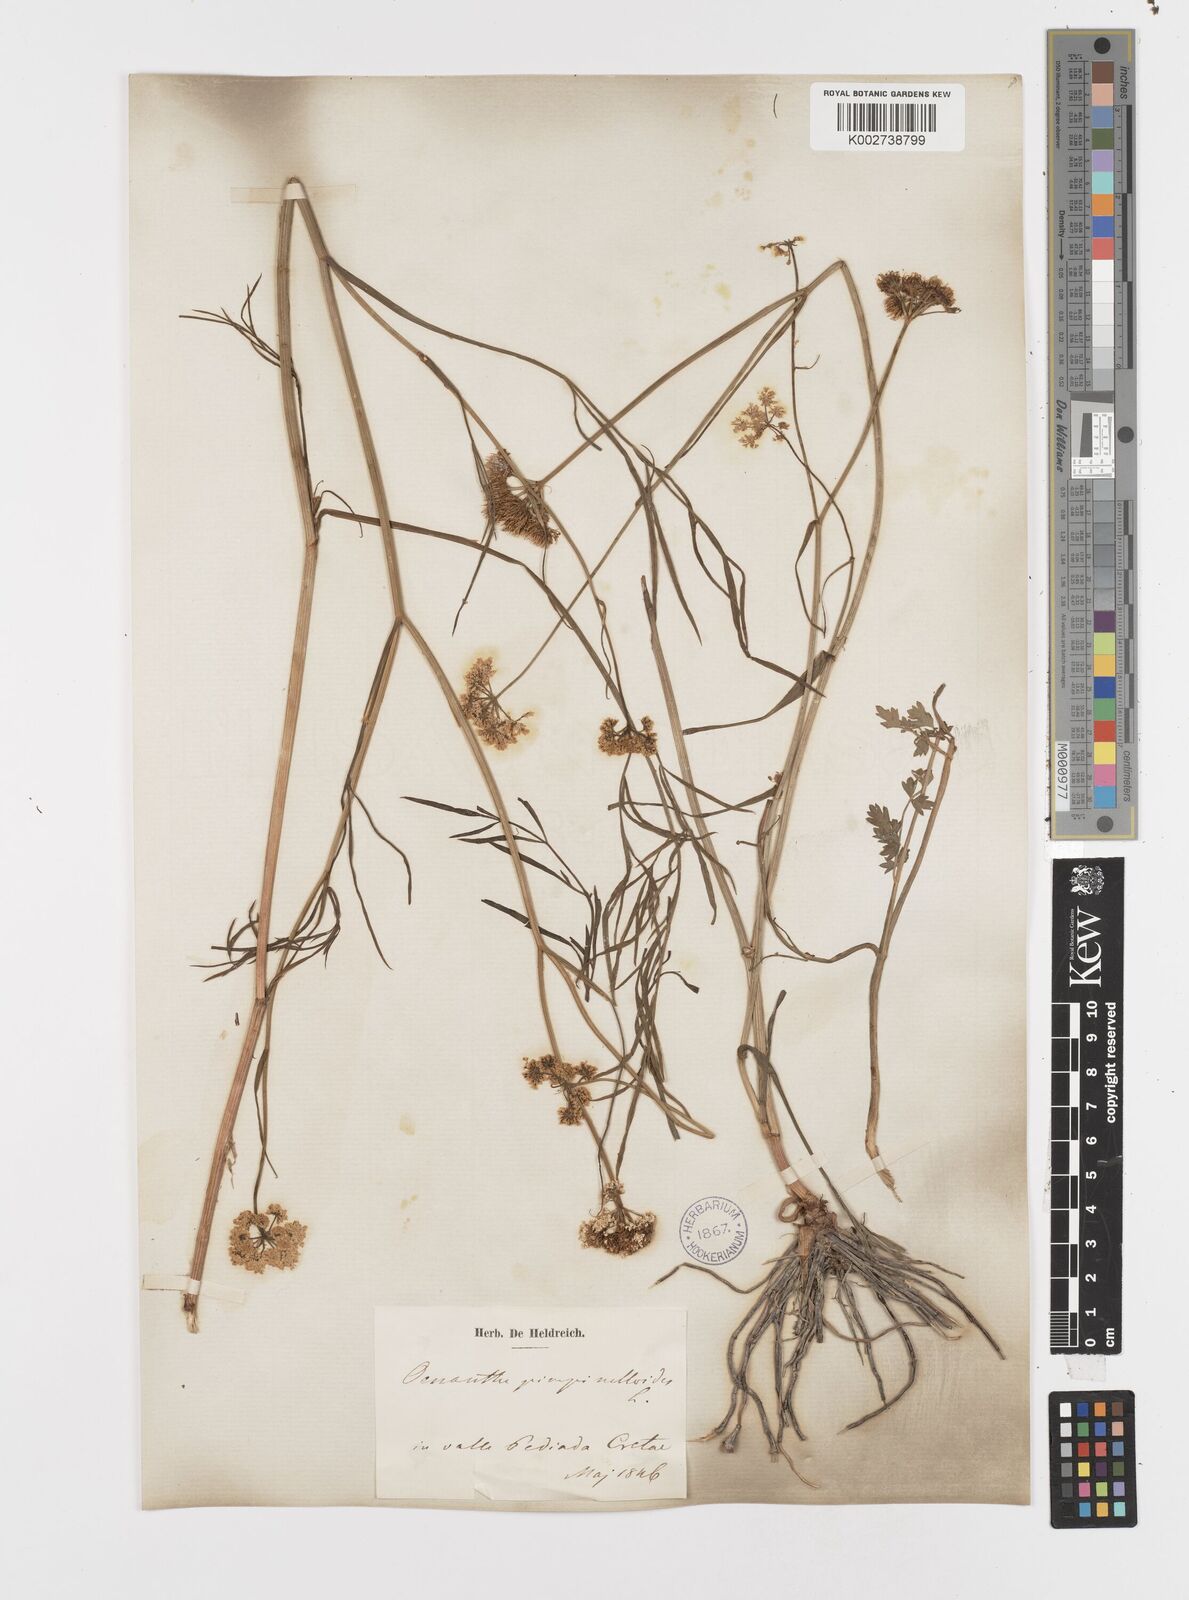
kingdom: Plantae
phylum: Tracheophyta
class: Magnoliopsida
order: Apiales
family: Apiaceae
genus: Oenanthe
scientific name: Oenanthe pimpinelloides
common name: Corky-fruited water-dropwort
